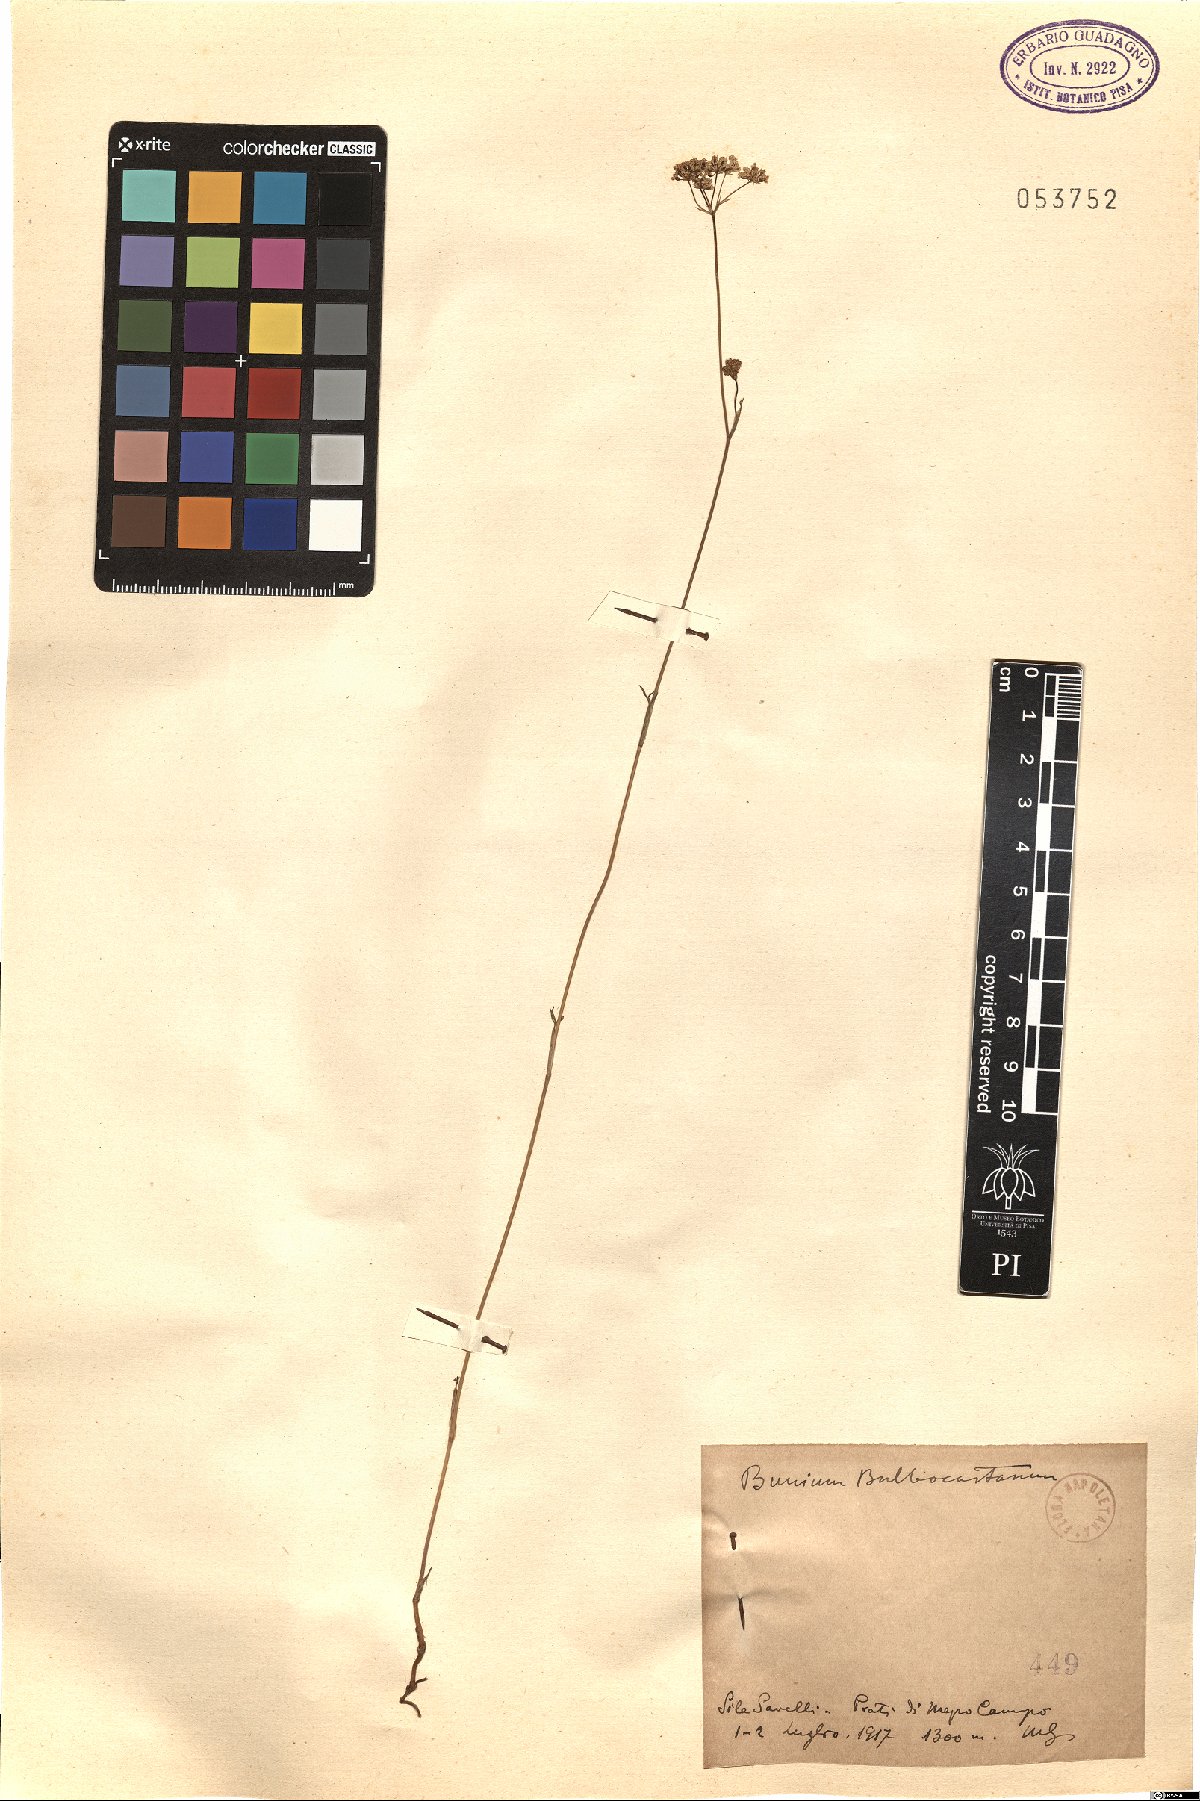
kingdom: Plantae
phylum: Tracheophyta
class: Magnoliopsida
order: Apiales
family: Apiaceae
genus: Bunium
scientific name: Bunium bulbocastanum
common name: Great pignut
